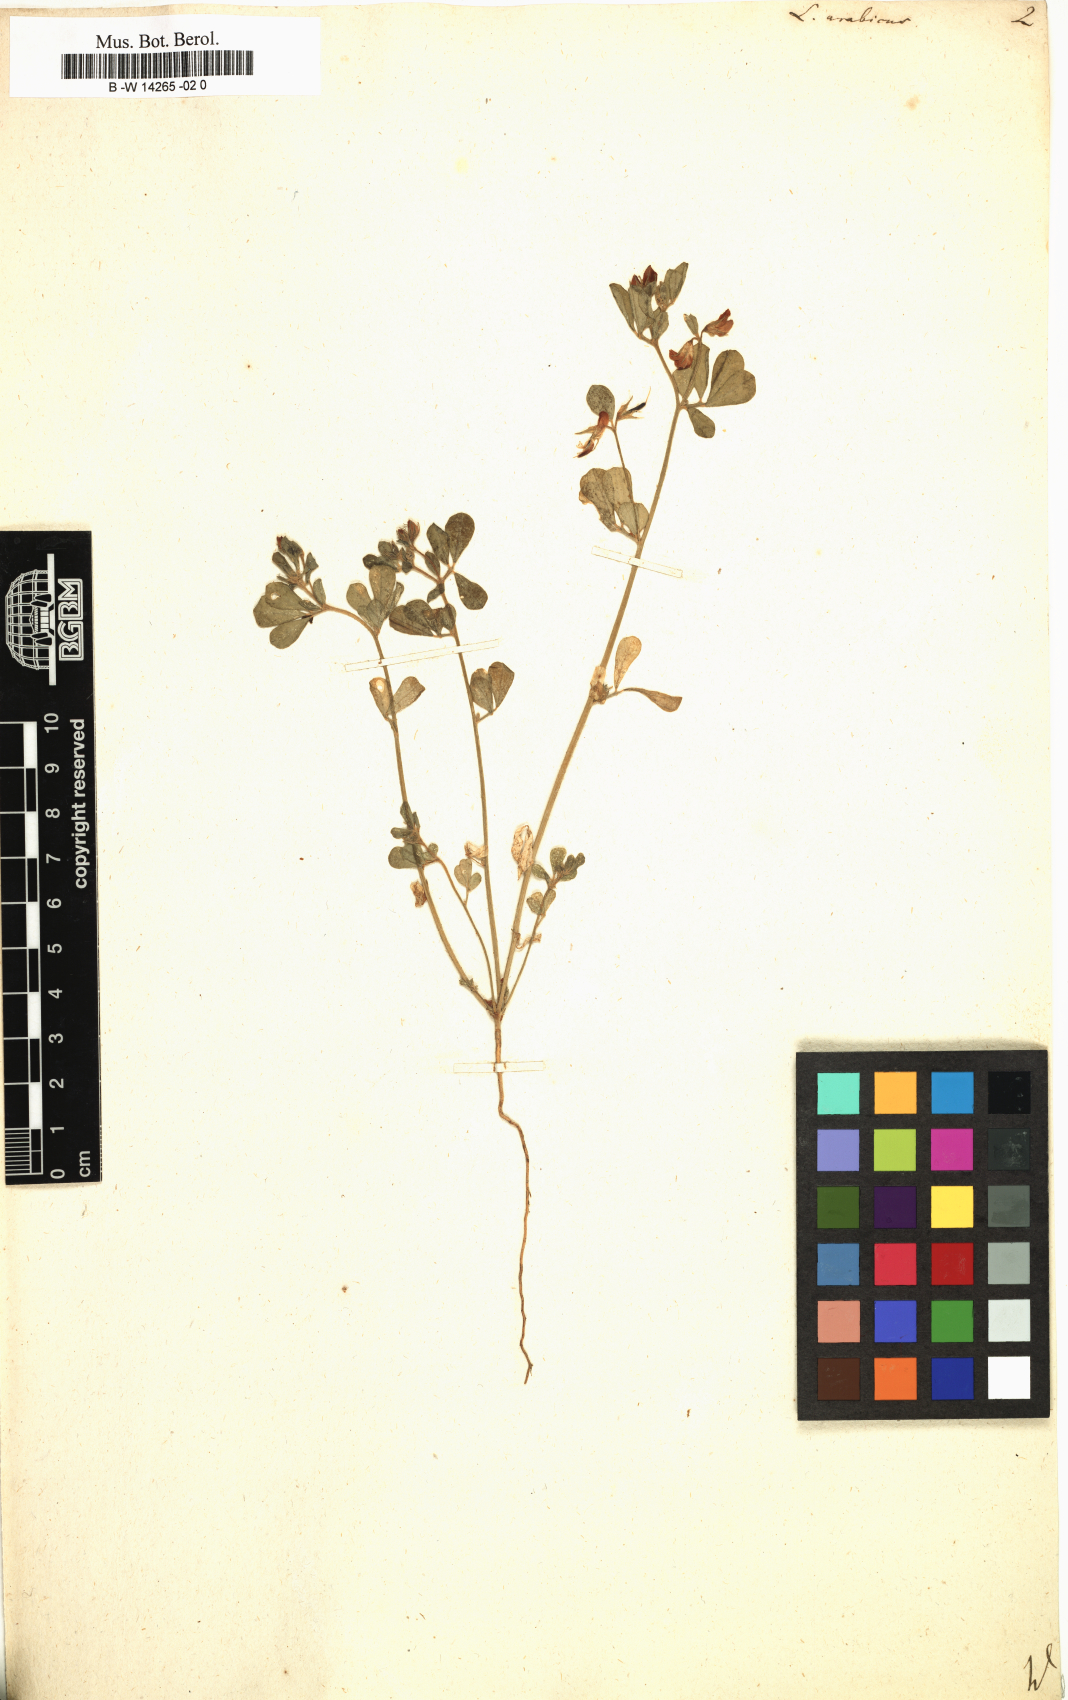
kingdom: Plantae
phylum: Tracheophyta
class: Magnoliopsida
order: Fabales
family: Fabaceae
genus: Lotus
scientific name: Lotus arabicus
